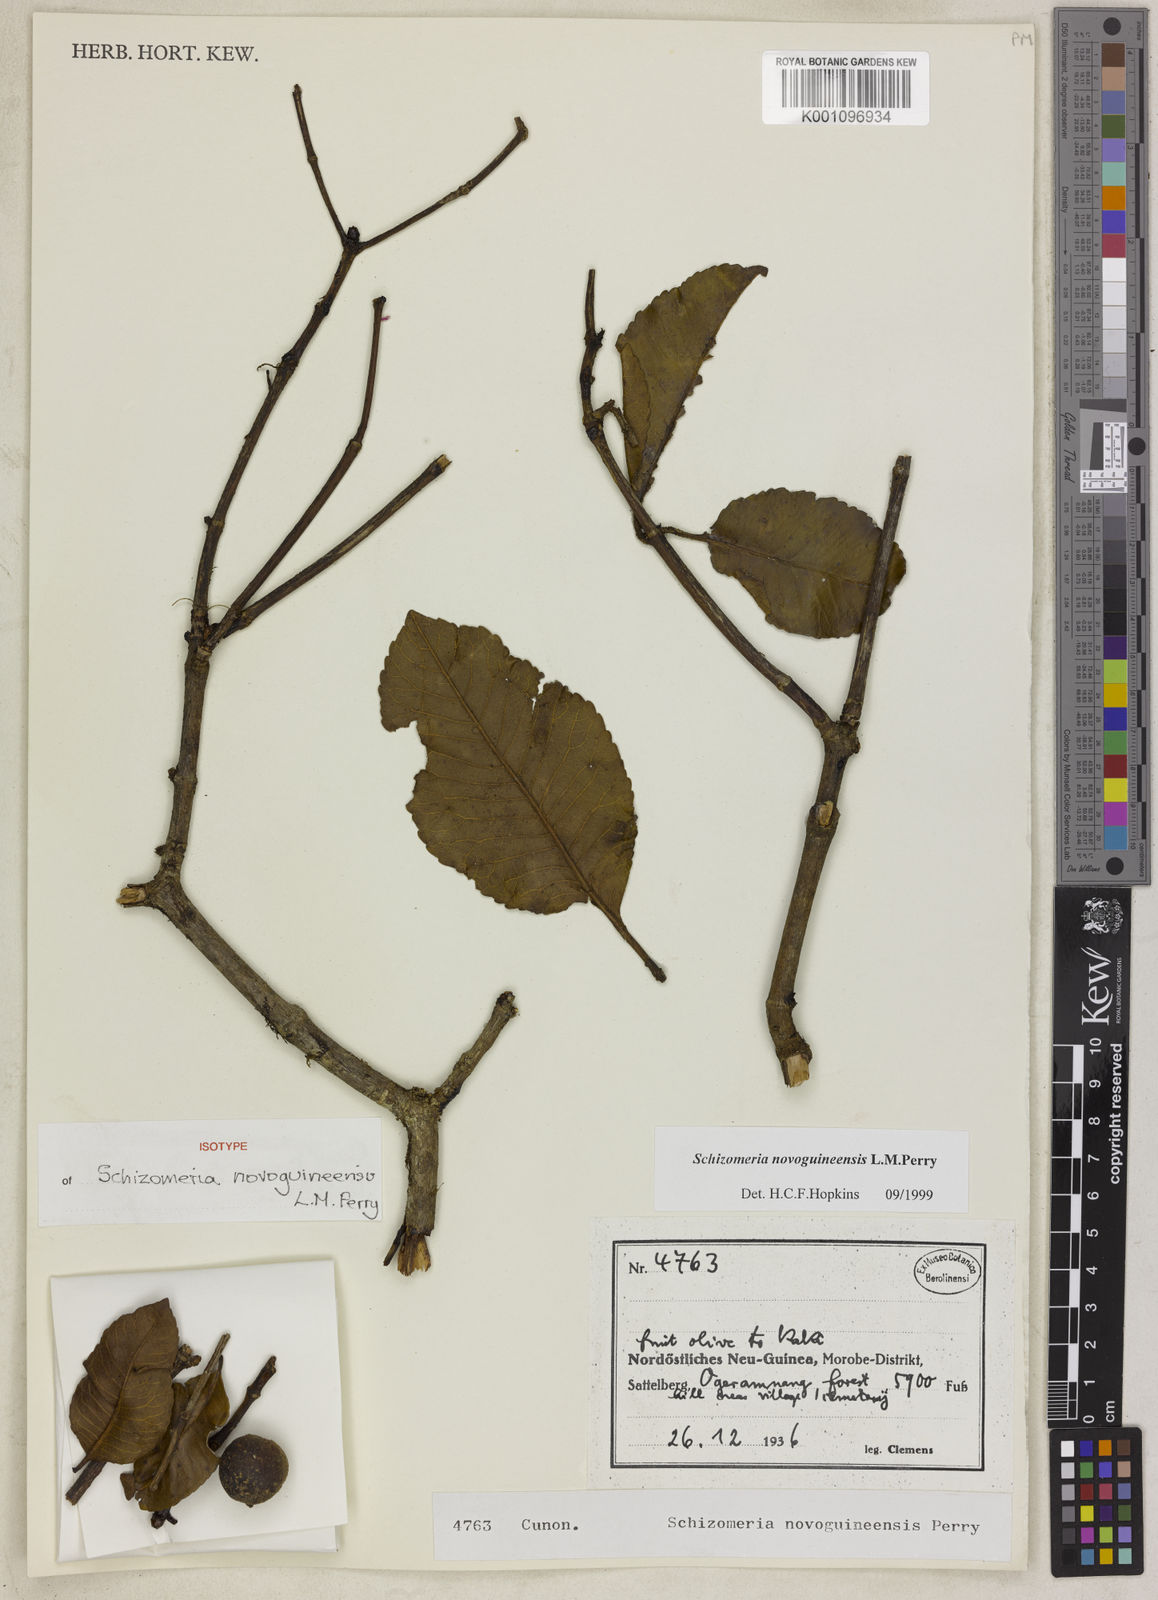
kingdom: Plantae
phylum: Tracheophyta
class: Magnoliopsida
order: Oxalidales
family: Cunoniaceae
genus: Schizomeria
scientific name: Schizomeria novoguineensis
